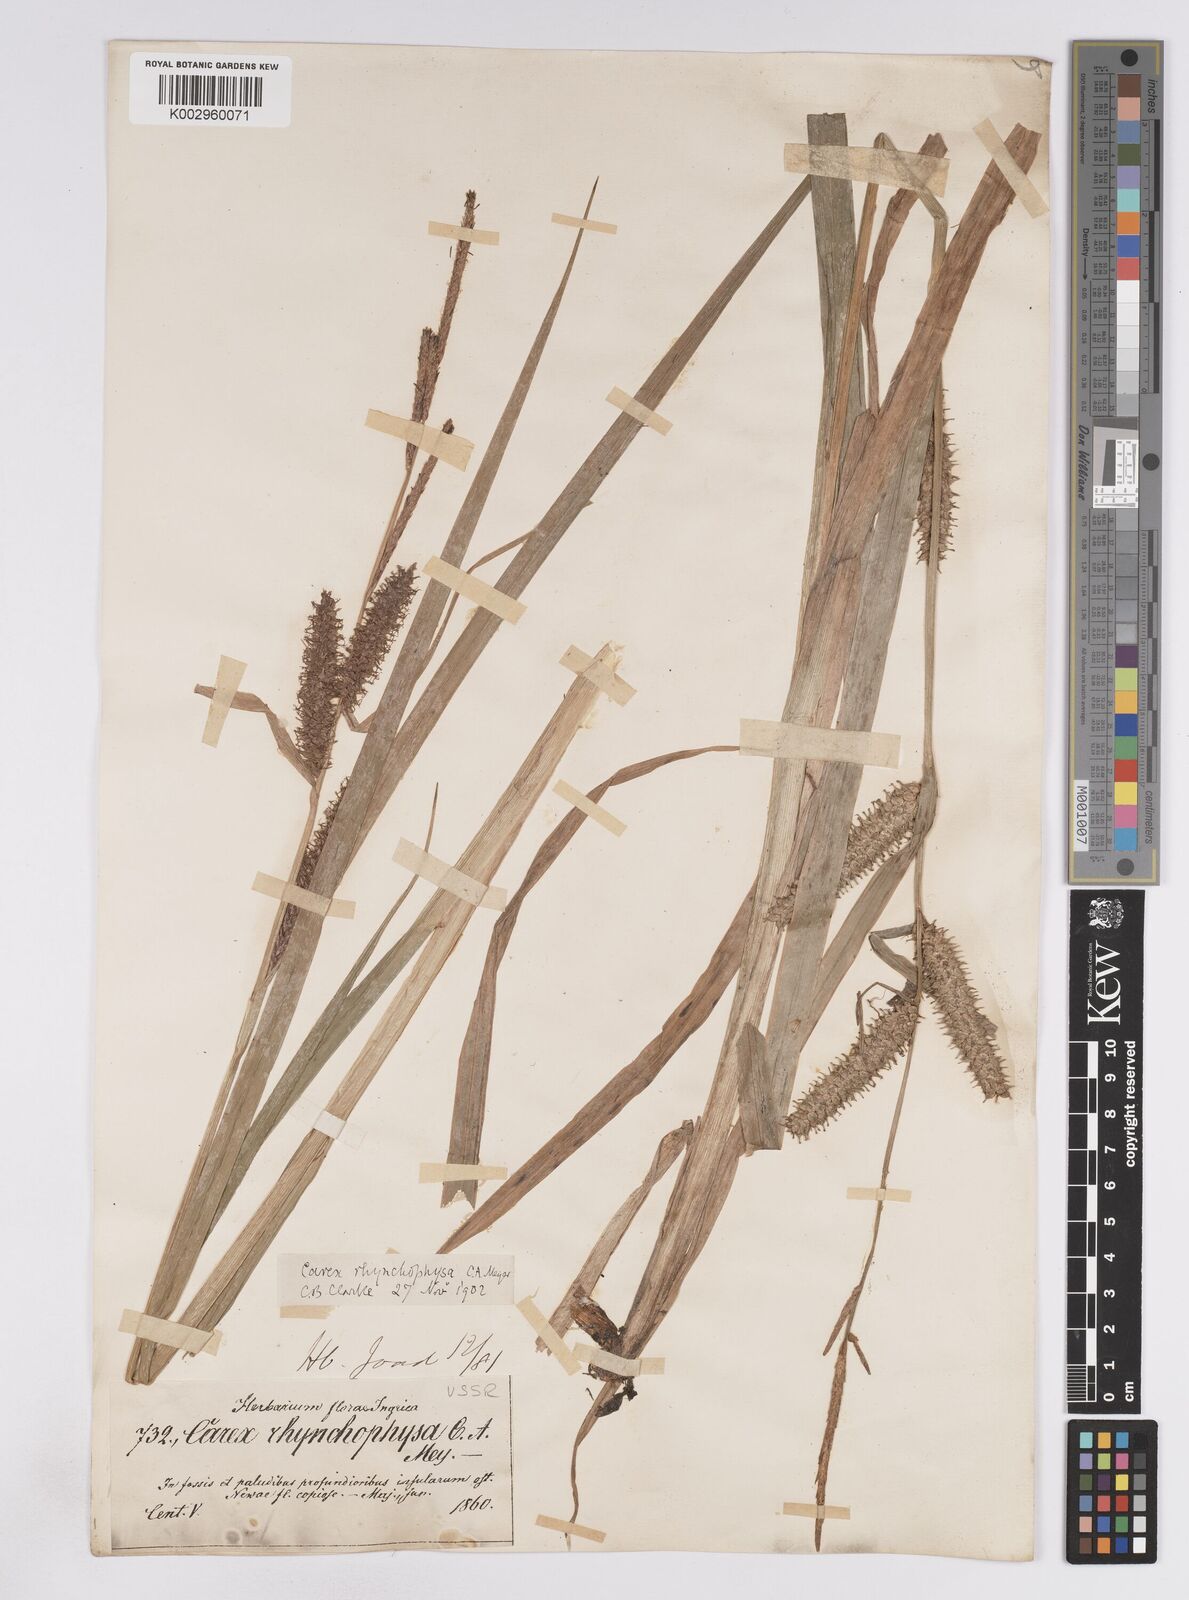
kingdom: Plantae
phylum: Tracheophyta
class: Liliopsida
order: Poales
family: Cyperaceae
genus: Carex
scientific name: Carex utriculata
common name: Beaked sedge
